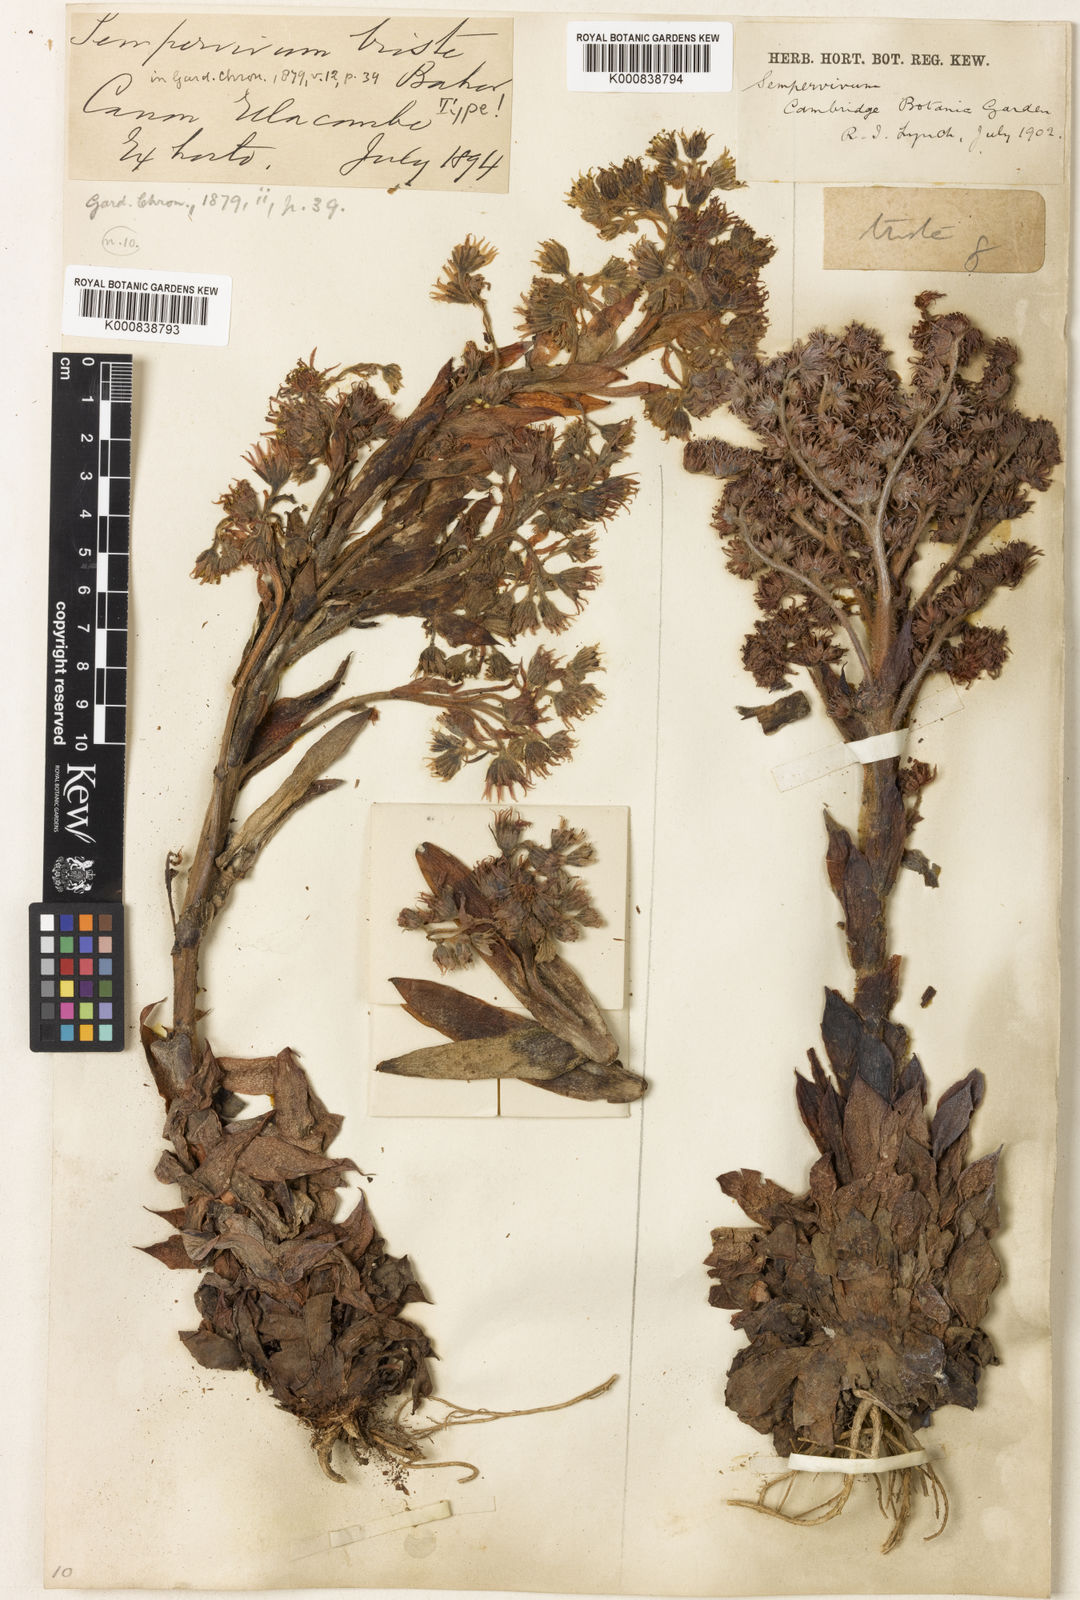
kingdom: Plantae
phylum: Tracheophyta
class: Magnoliopsida
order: Saxifragales
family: Crassulaceae
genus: Sempervivum
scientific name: Sempervivum tectorum
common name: House-leek
